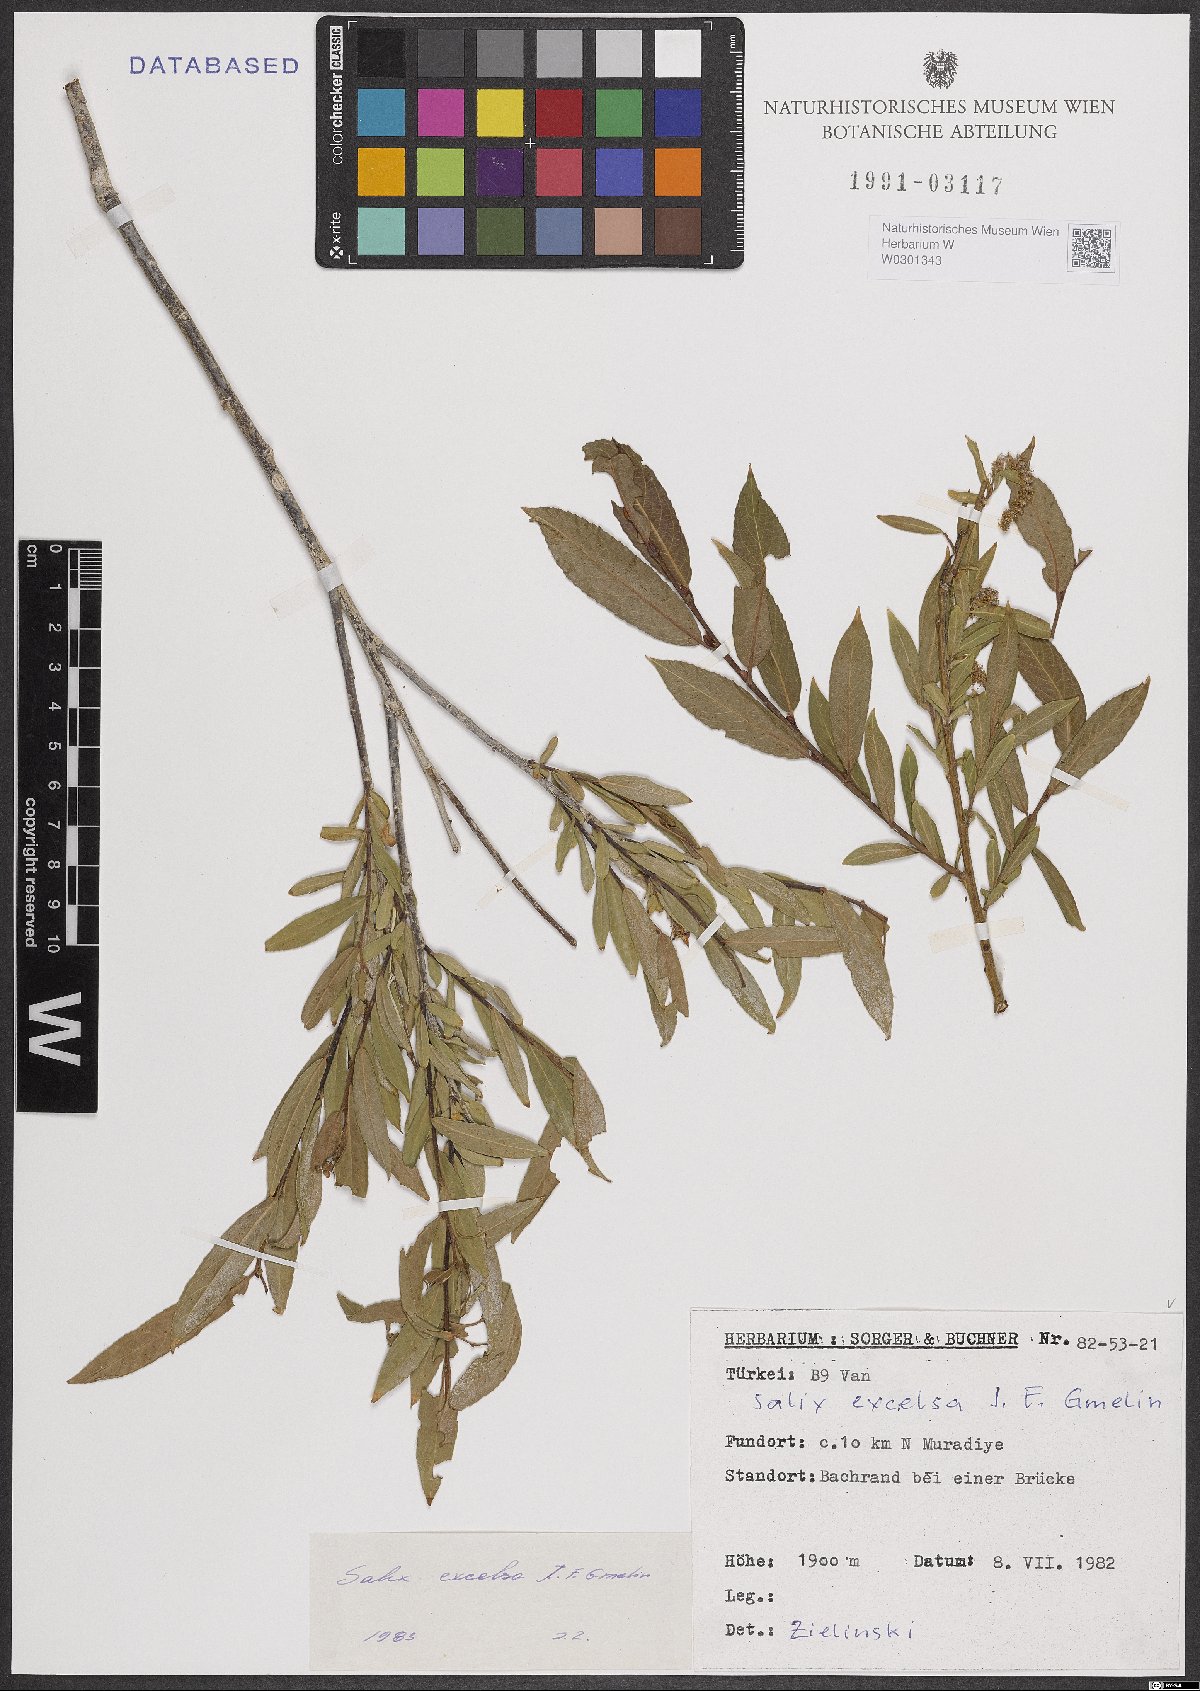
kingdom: Plantae
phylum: Tracheophyta
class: Magnoliopsida
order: Malpighiales
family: Salicaceae
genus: Salix
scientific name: Salix excelsa
